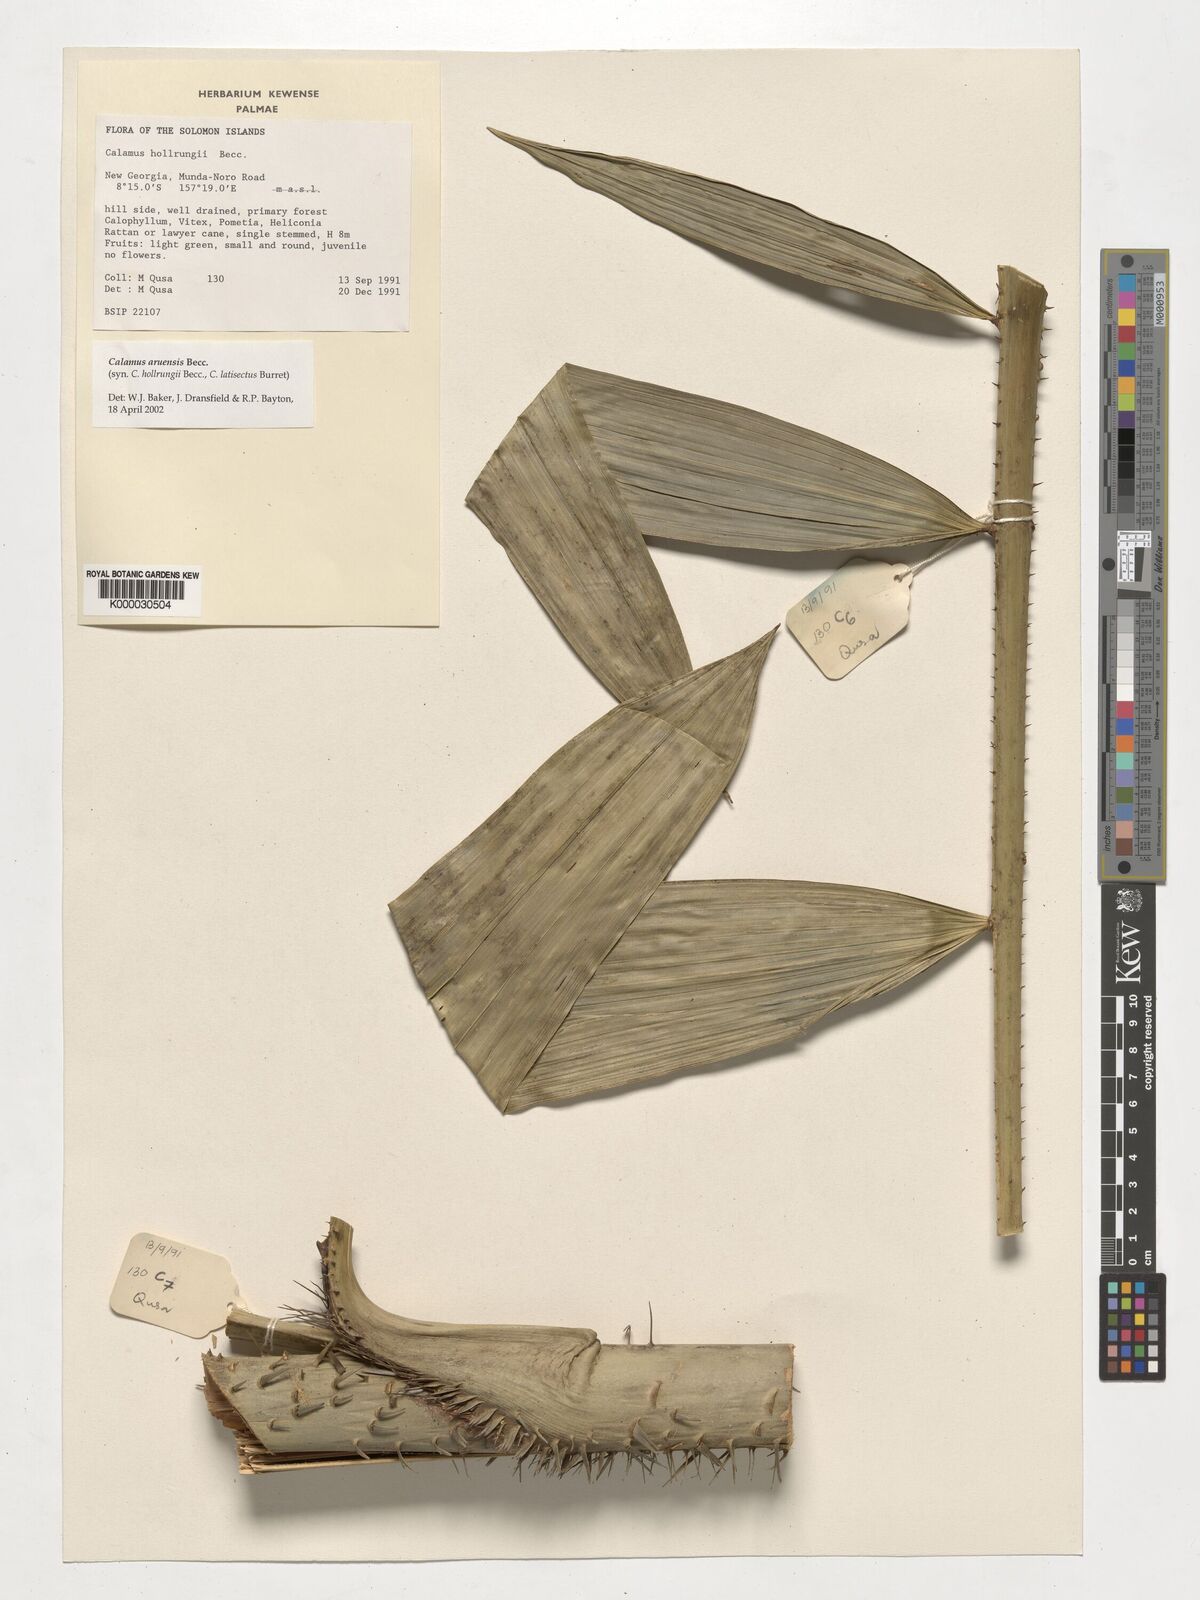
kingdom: Plantae
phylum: Tracheophyta
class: Liliopsida
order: Arecales
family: Arecaceae
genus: Calamus
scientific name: Calamus aruensis
